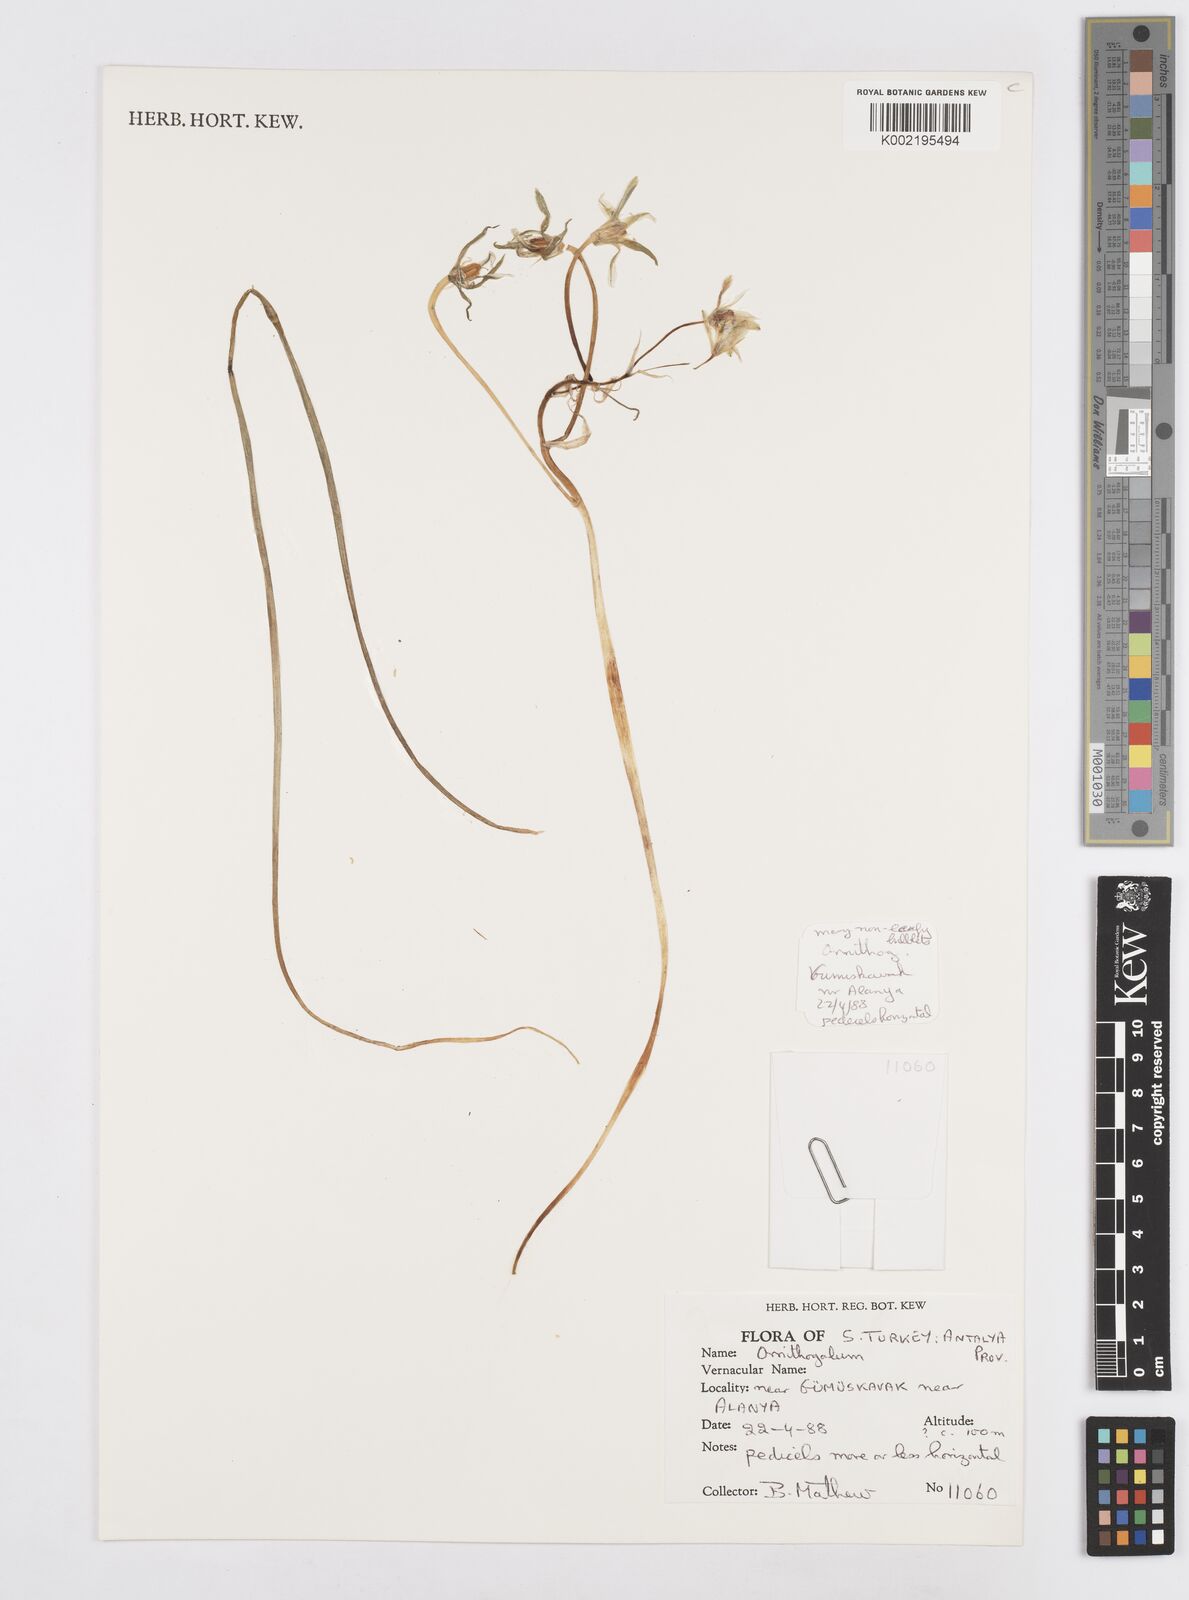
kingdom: Plantae
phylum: Tracheophyta
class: Liliopsida
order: Asparagales
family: Asparagaceae
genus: Ornithogalum
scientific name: Ornithogalum
